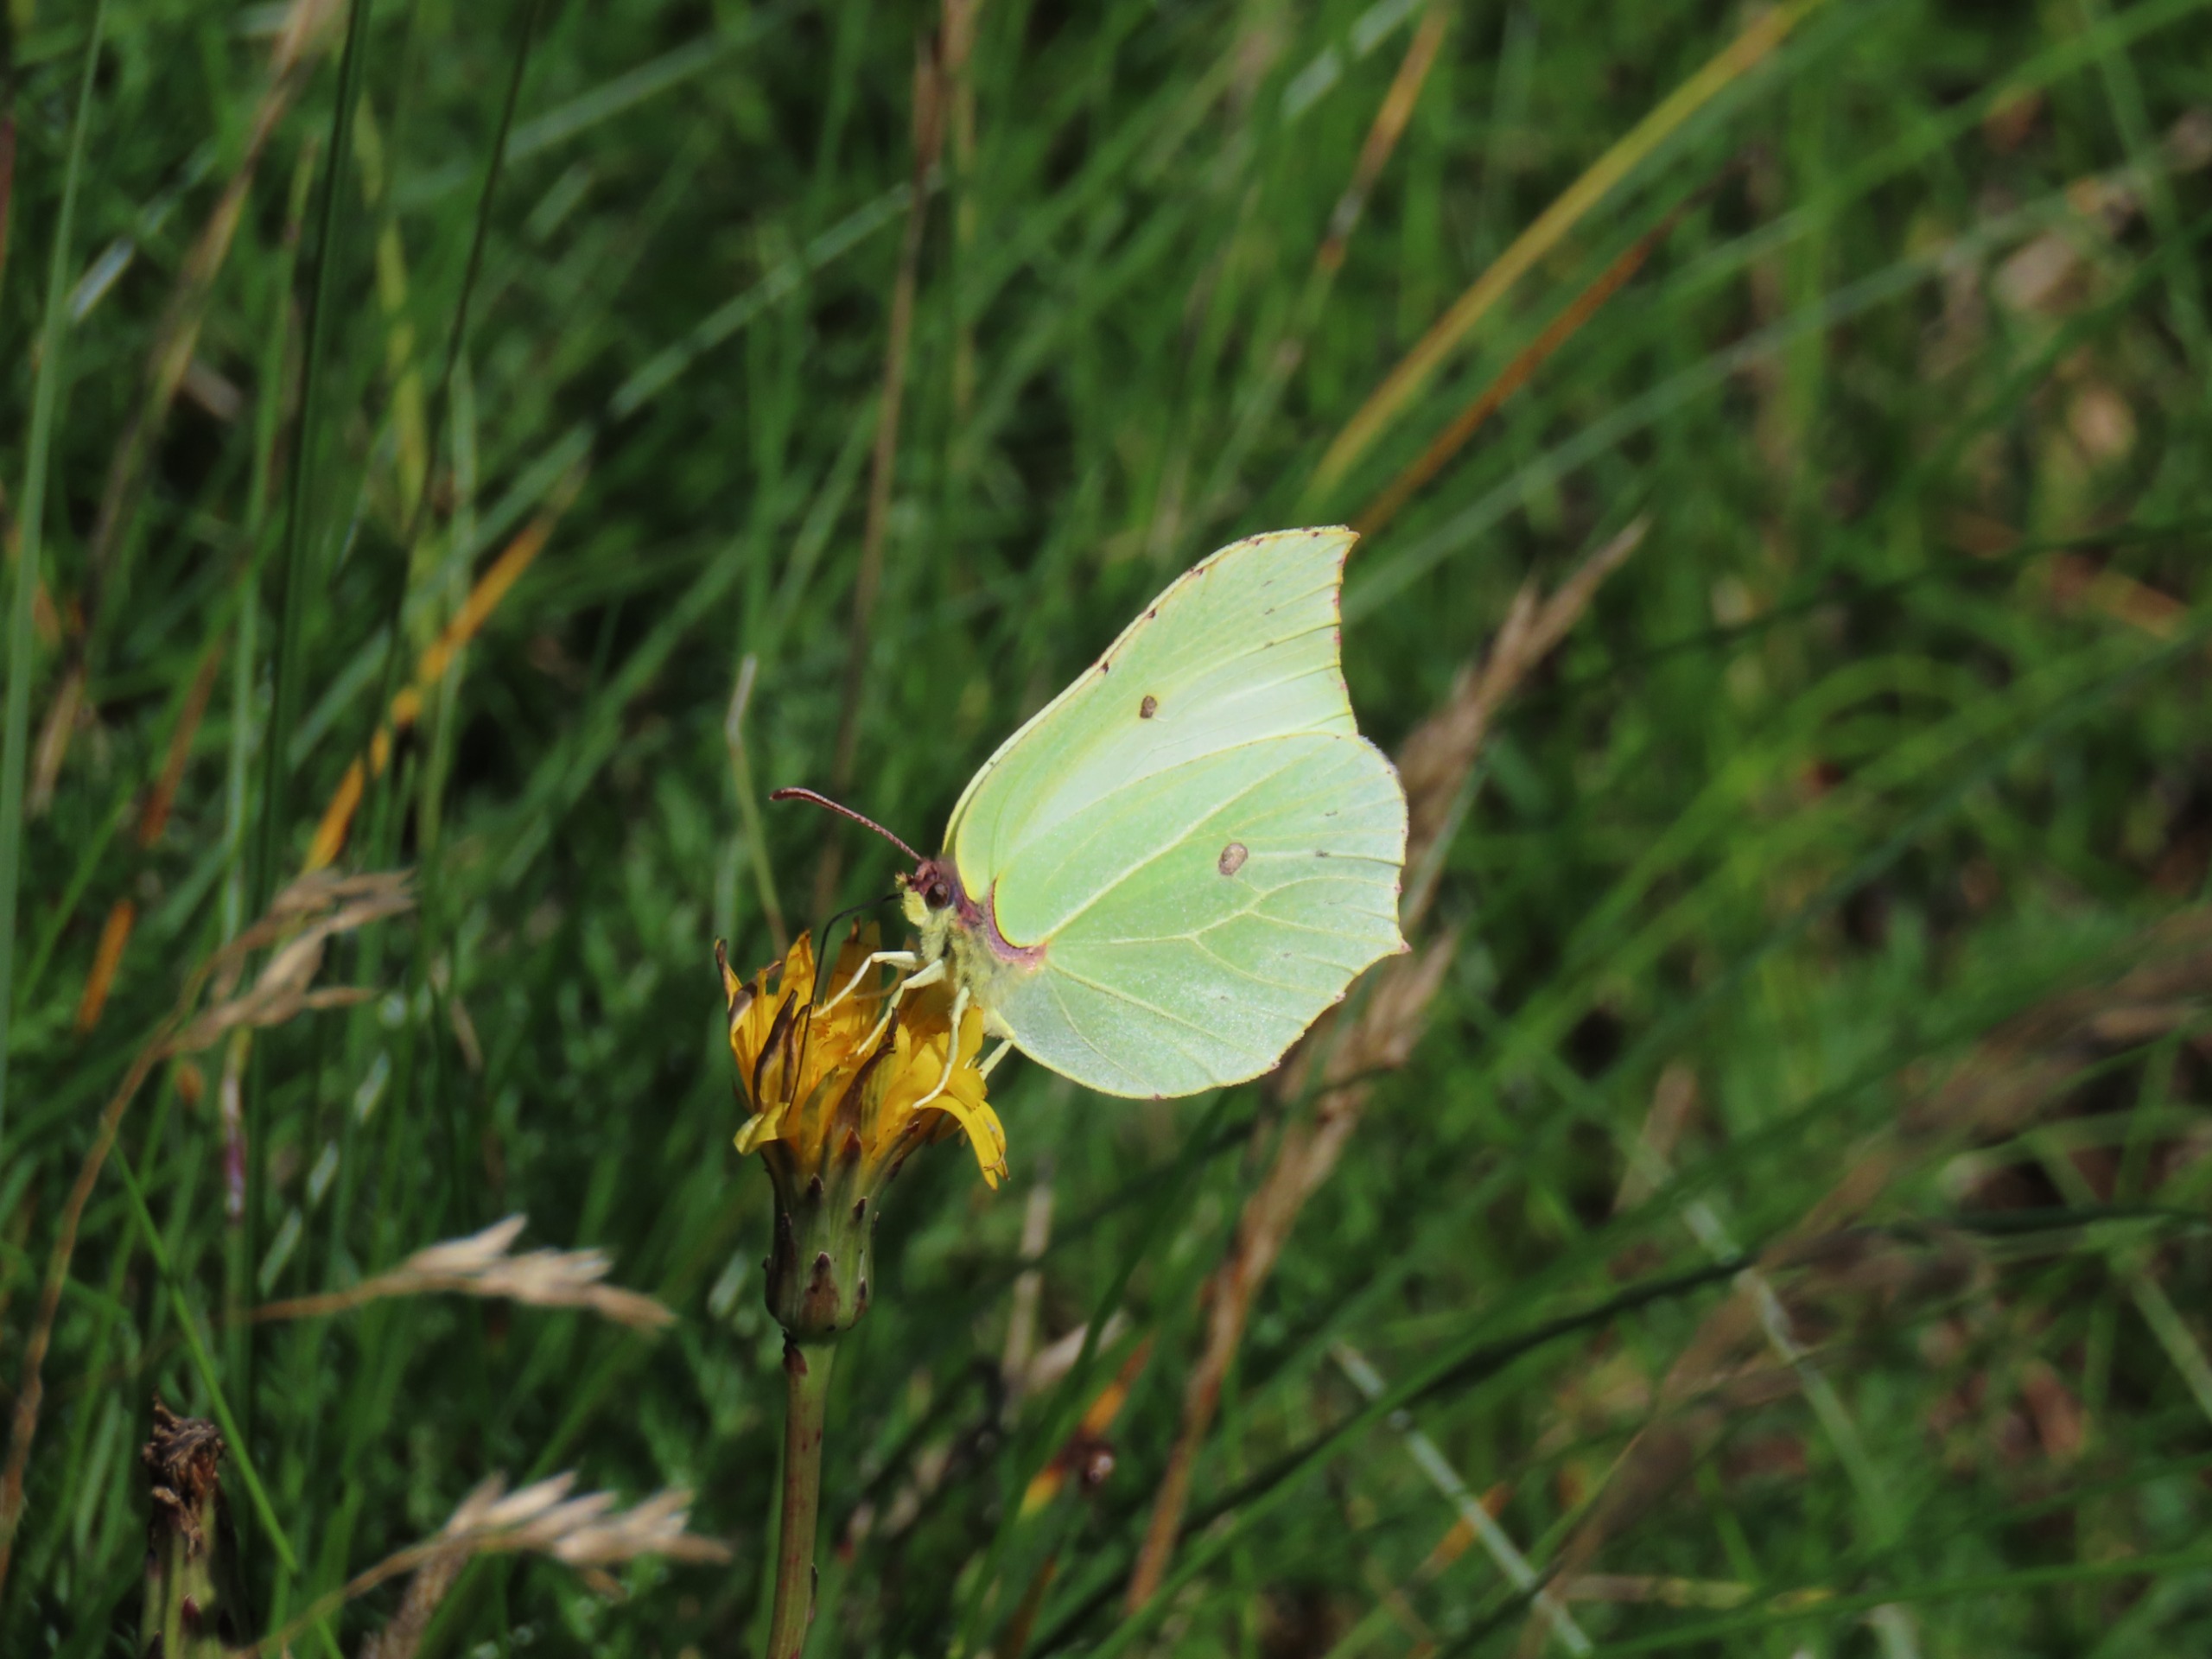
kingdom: Animalia
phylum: Arthropoda
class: Insecta
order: Lepidoptera
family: Pieridae
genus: Gonepteryx
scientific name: Gonepteryx rhamni
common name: Citronsommerfugl
